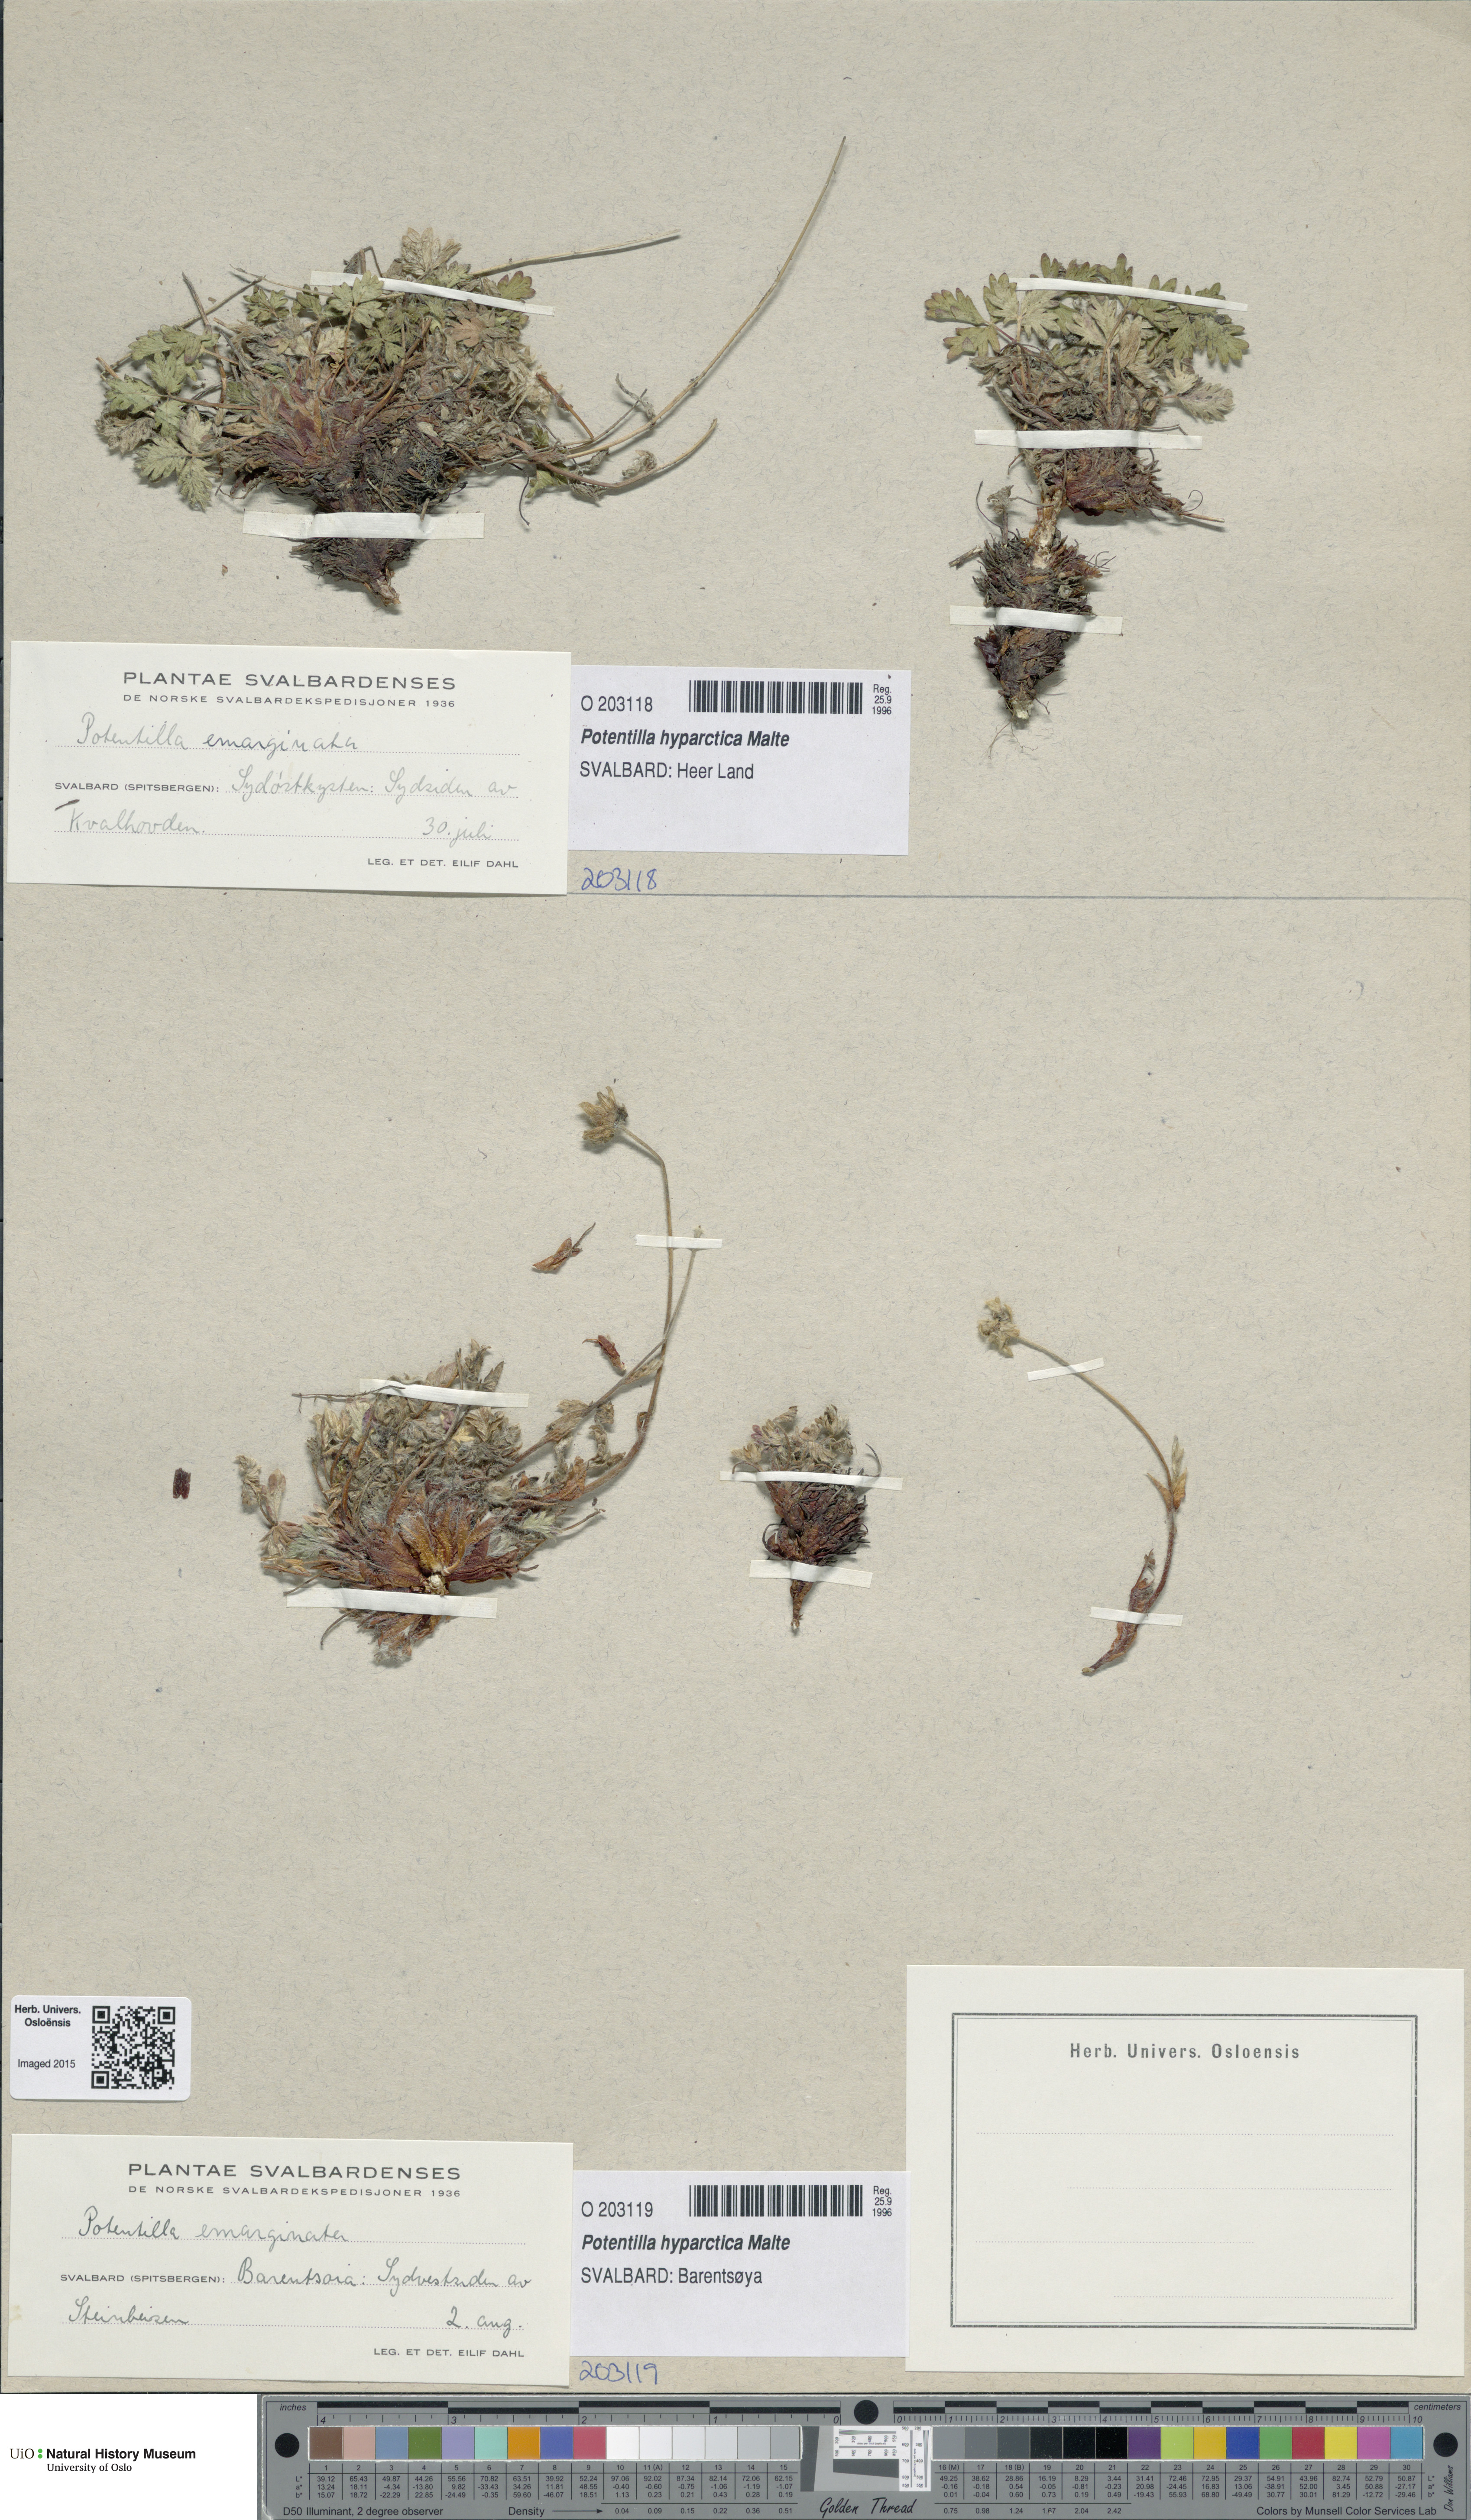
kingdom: Plantae
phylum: Tracheophyta
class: Magnoliopsida
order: Rosales
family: Rosaceae
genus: Potentilla
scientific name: Potentilla hyparctica
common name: Arctic cinquefoil
